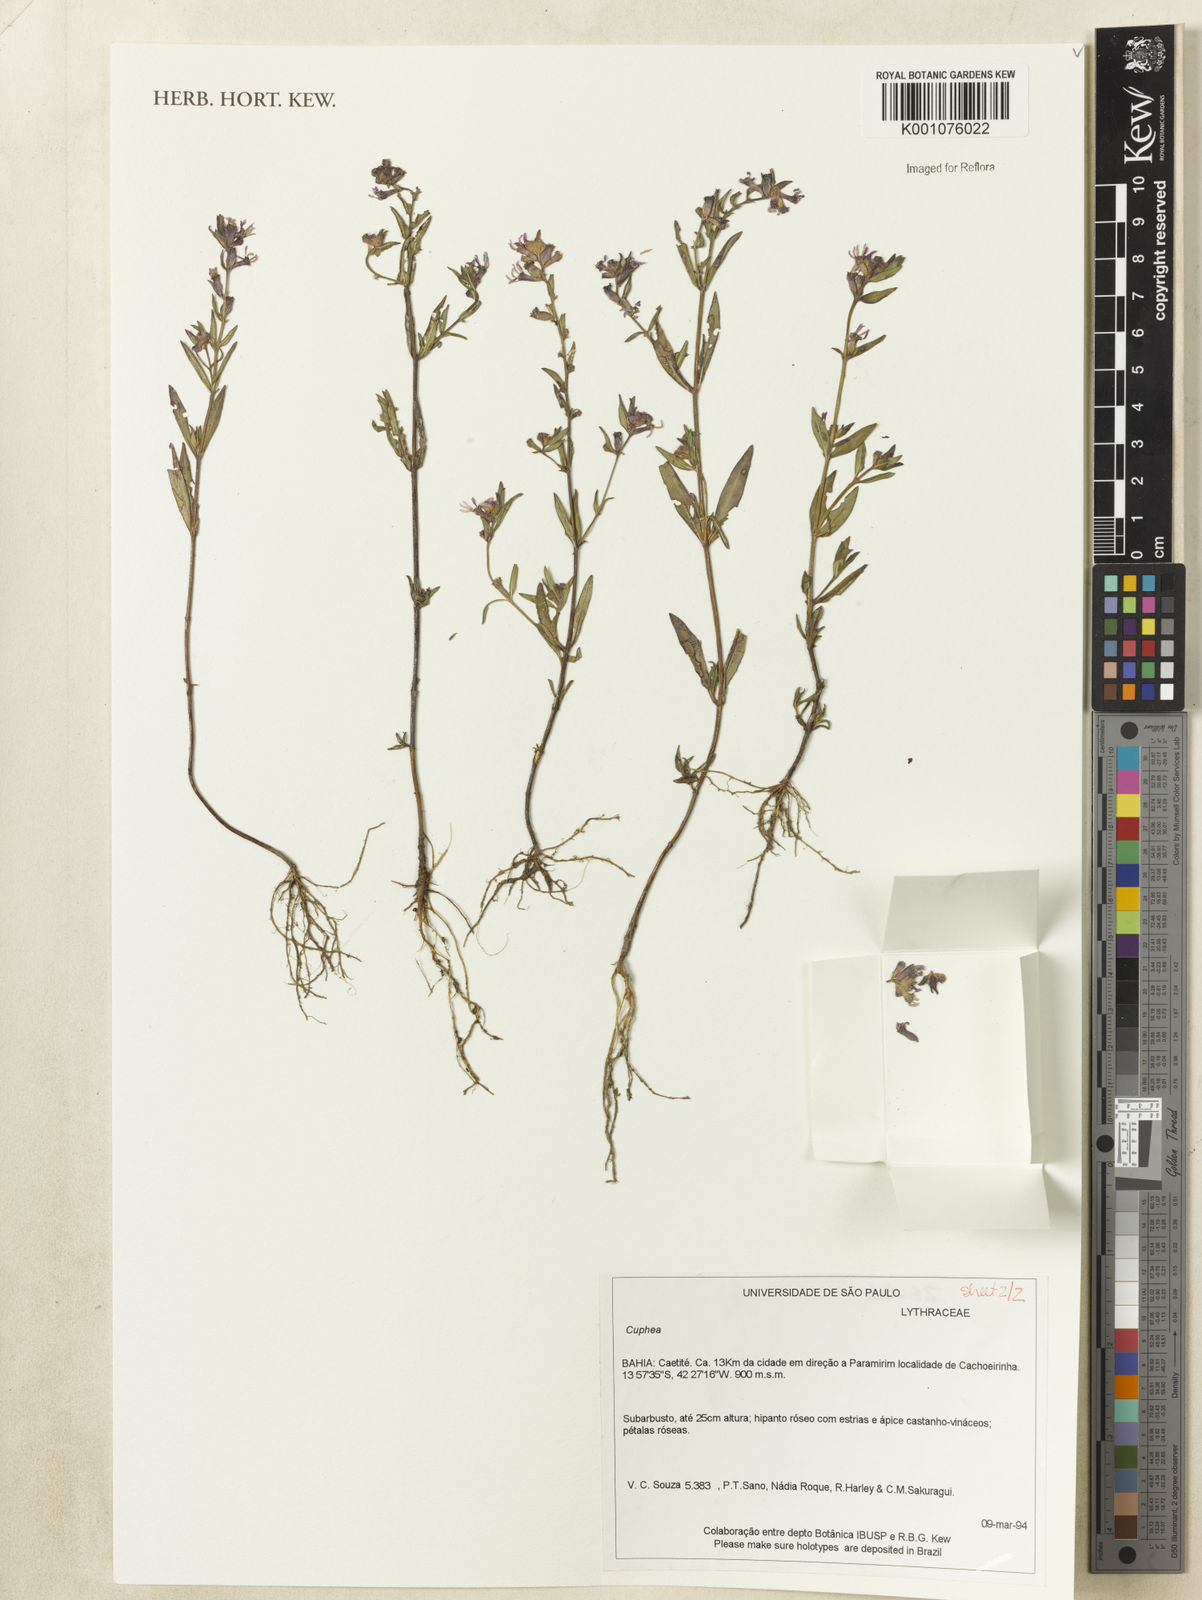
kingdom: Plantae
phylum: Tracheophyta
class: Magnoliopsida
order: Myrtales
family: Lythraceae
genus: Cuphea
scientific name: Cuphea
